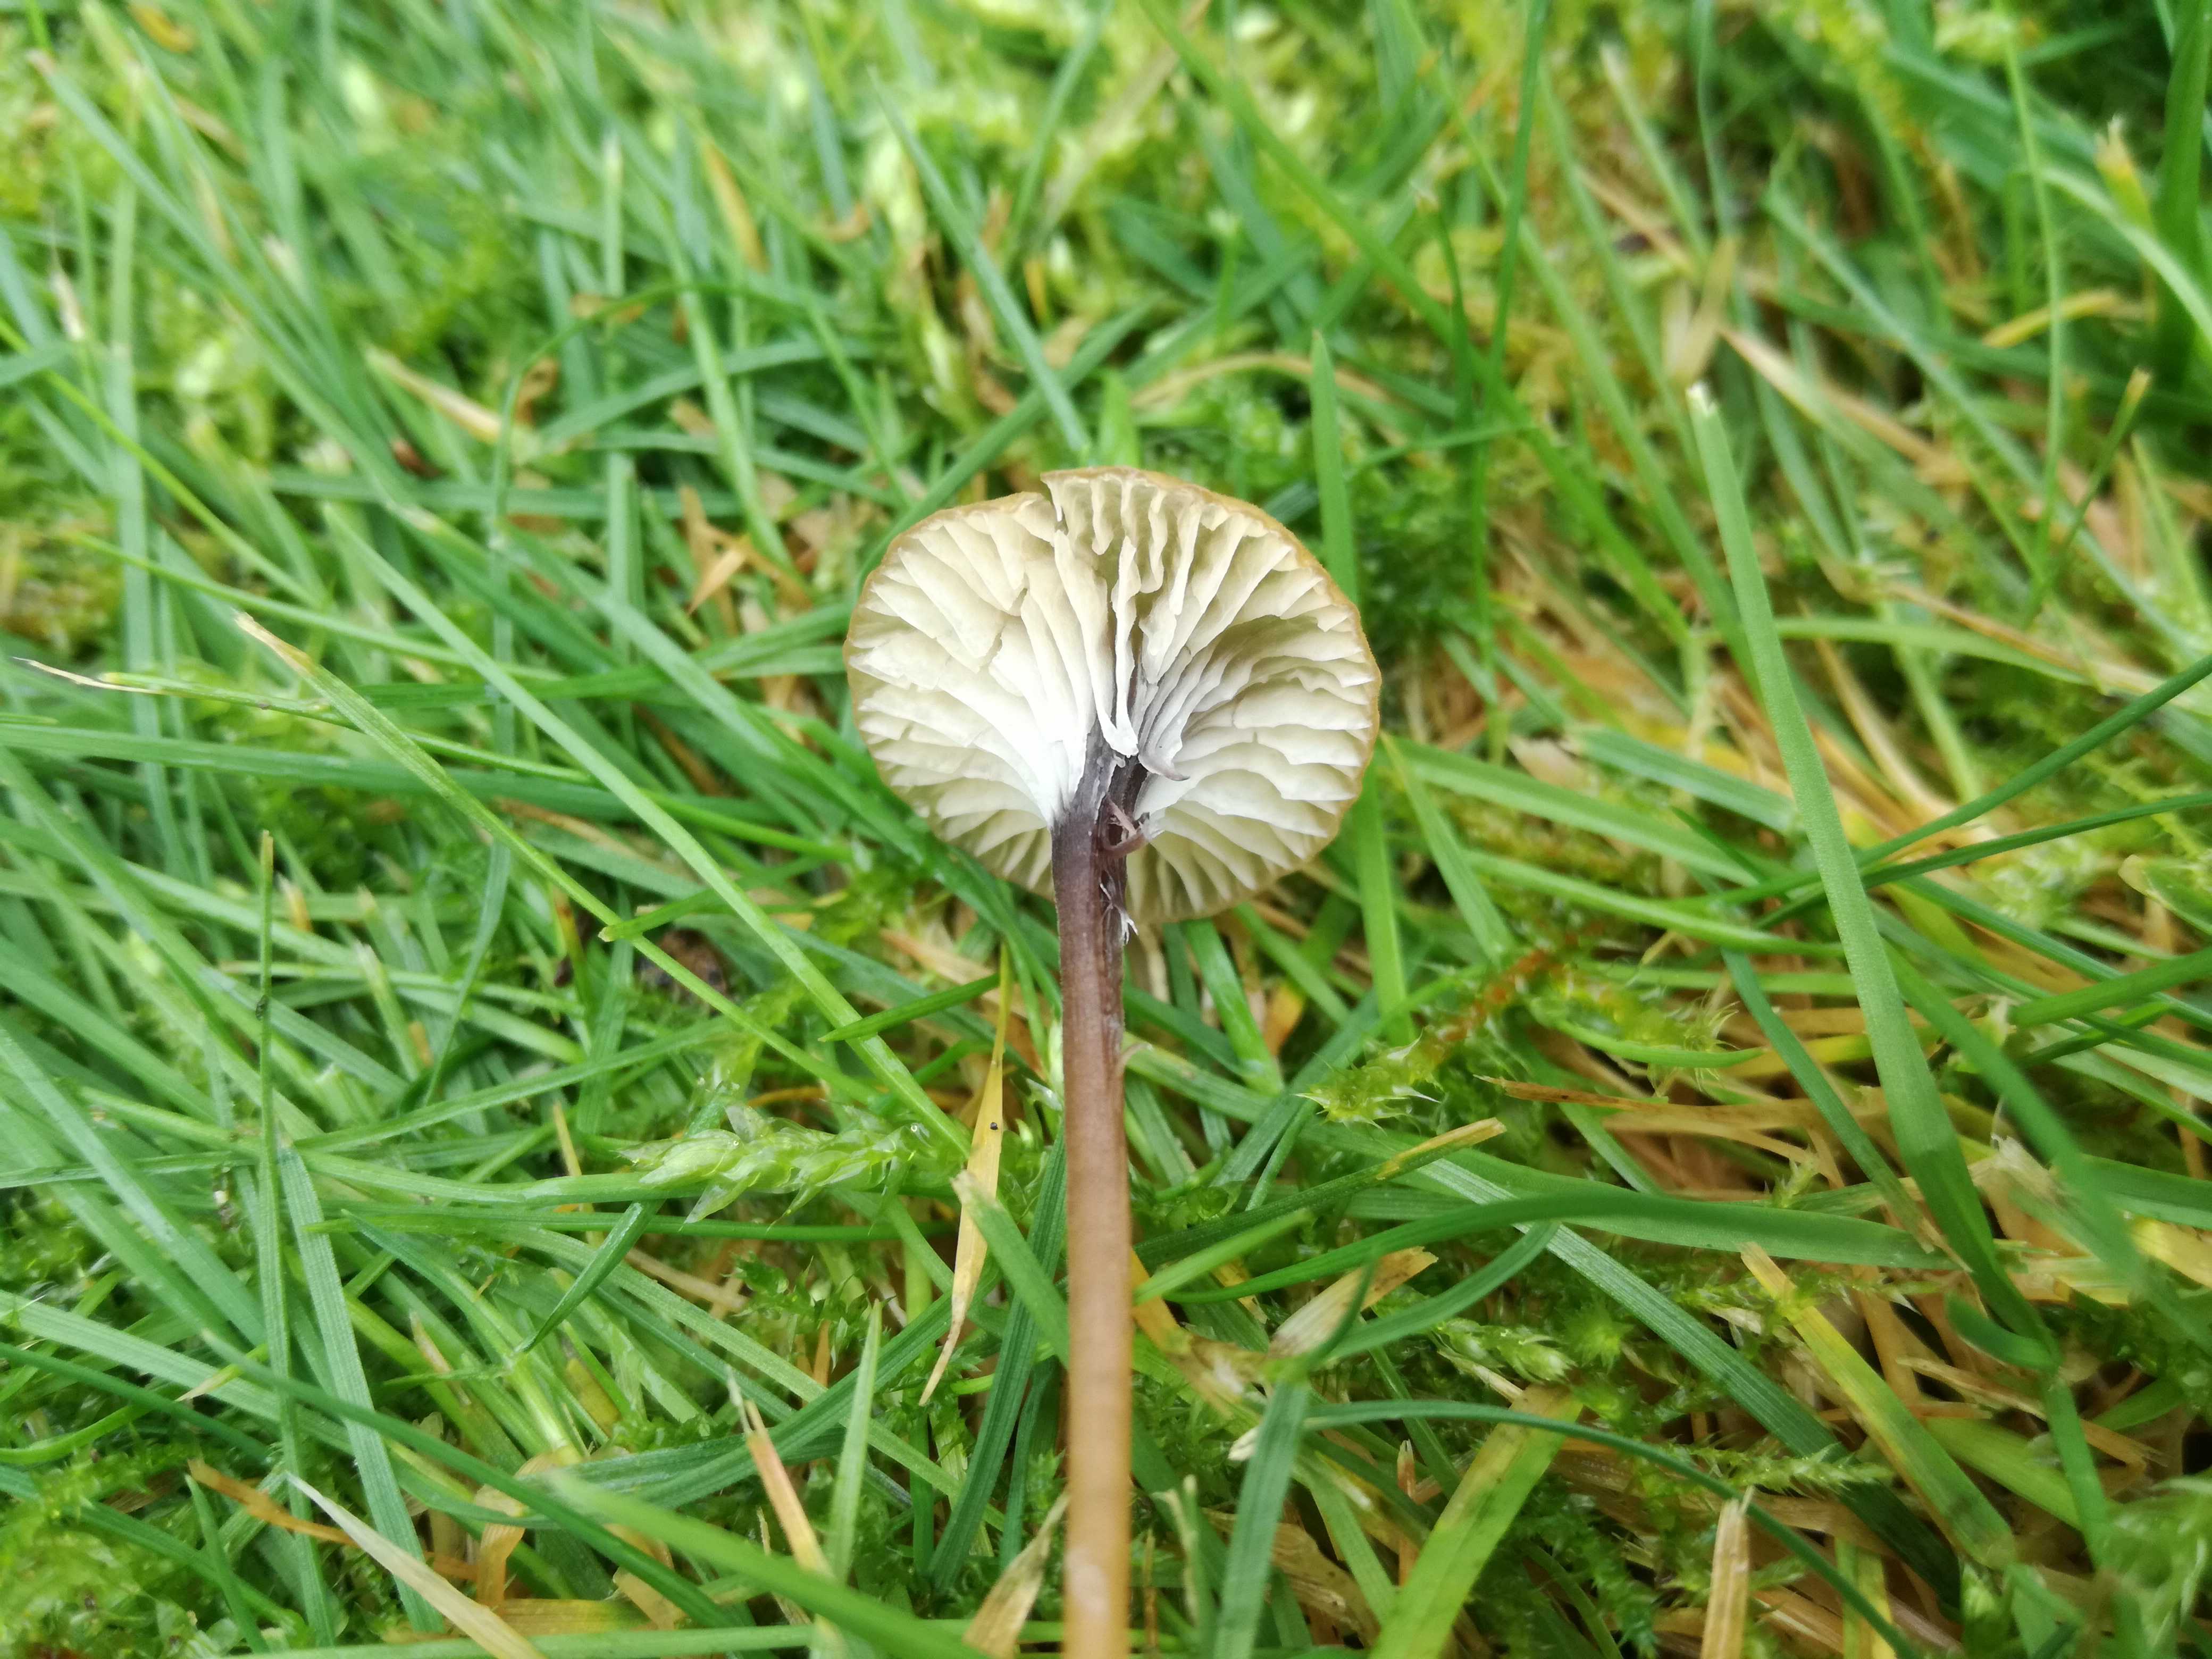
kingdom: Fungi
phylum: Basidiomycota
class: Agaricomycetes
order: Hymenochaetales
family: Rickenellaceae
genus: Rickenella
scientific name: Rickenella swartzii
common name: finstokket mosnavlehat
